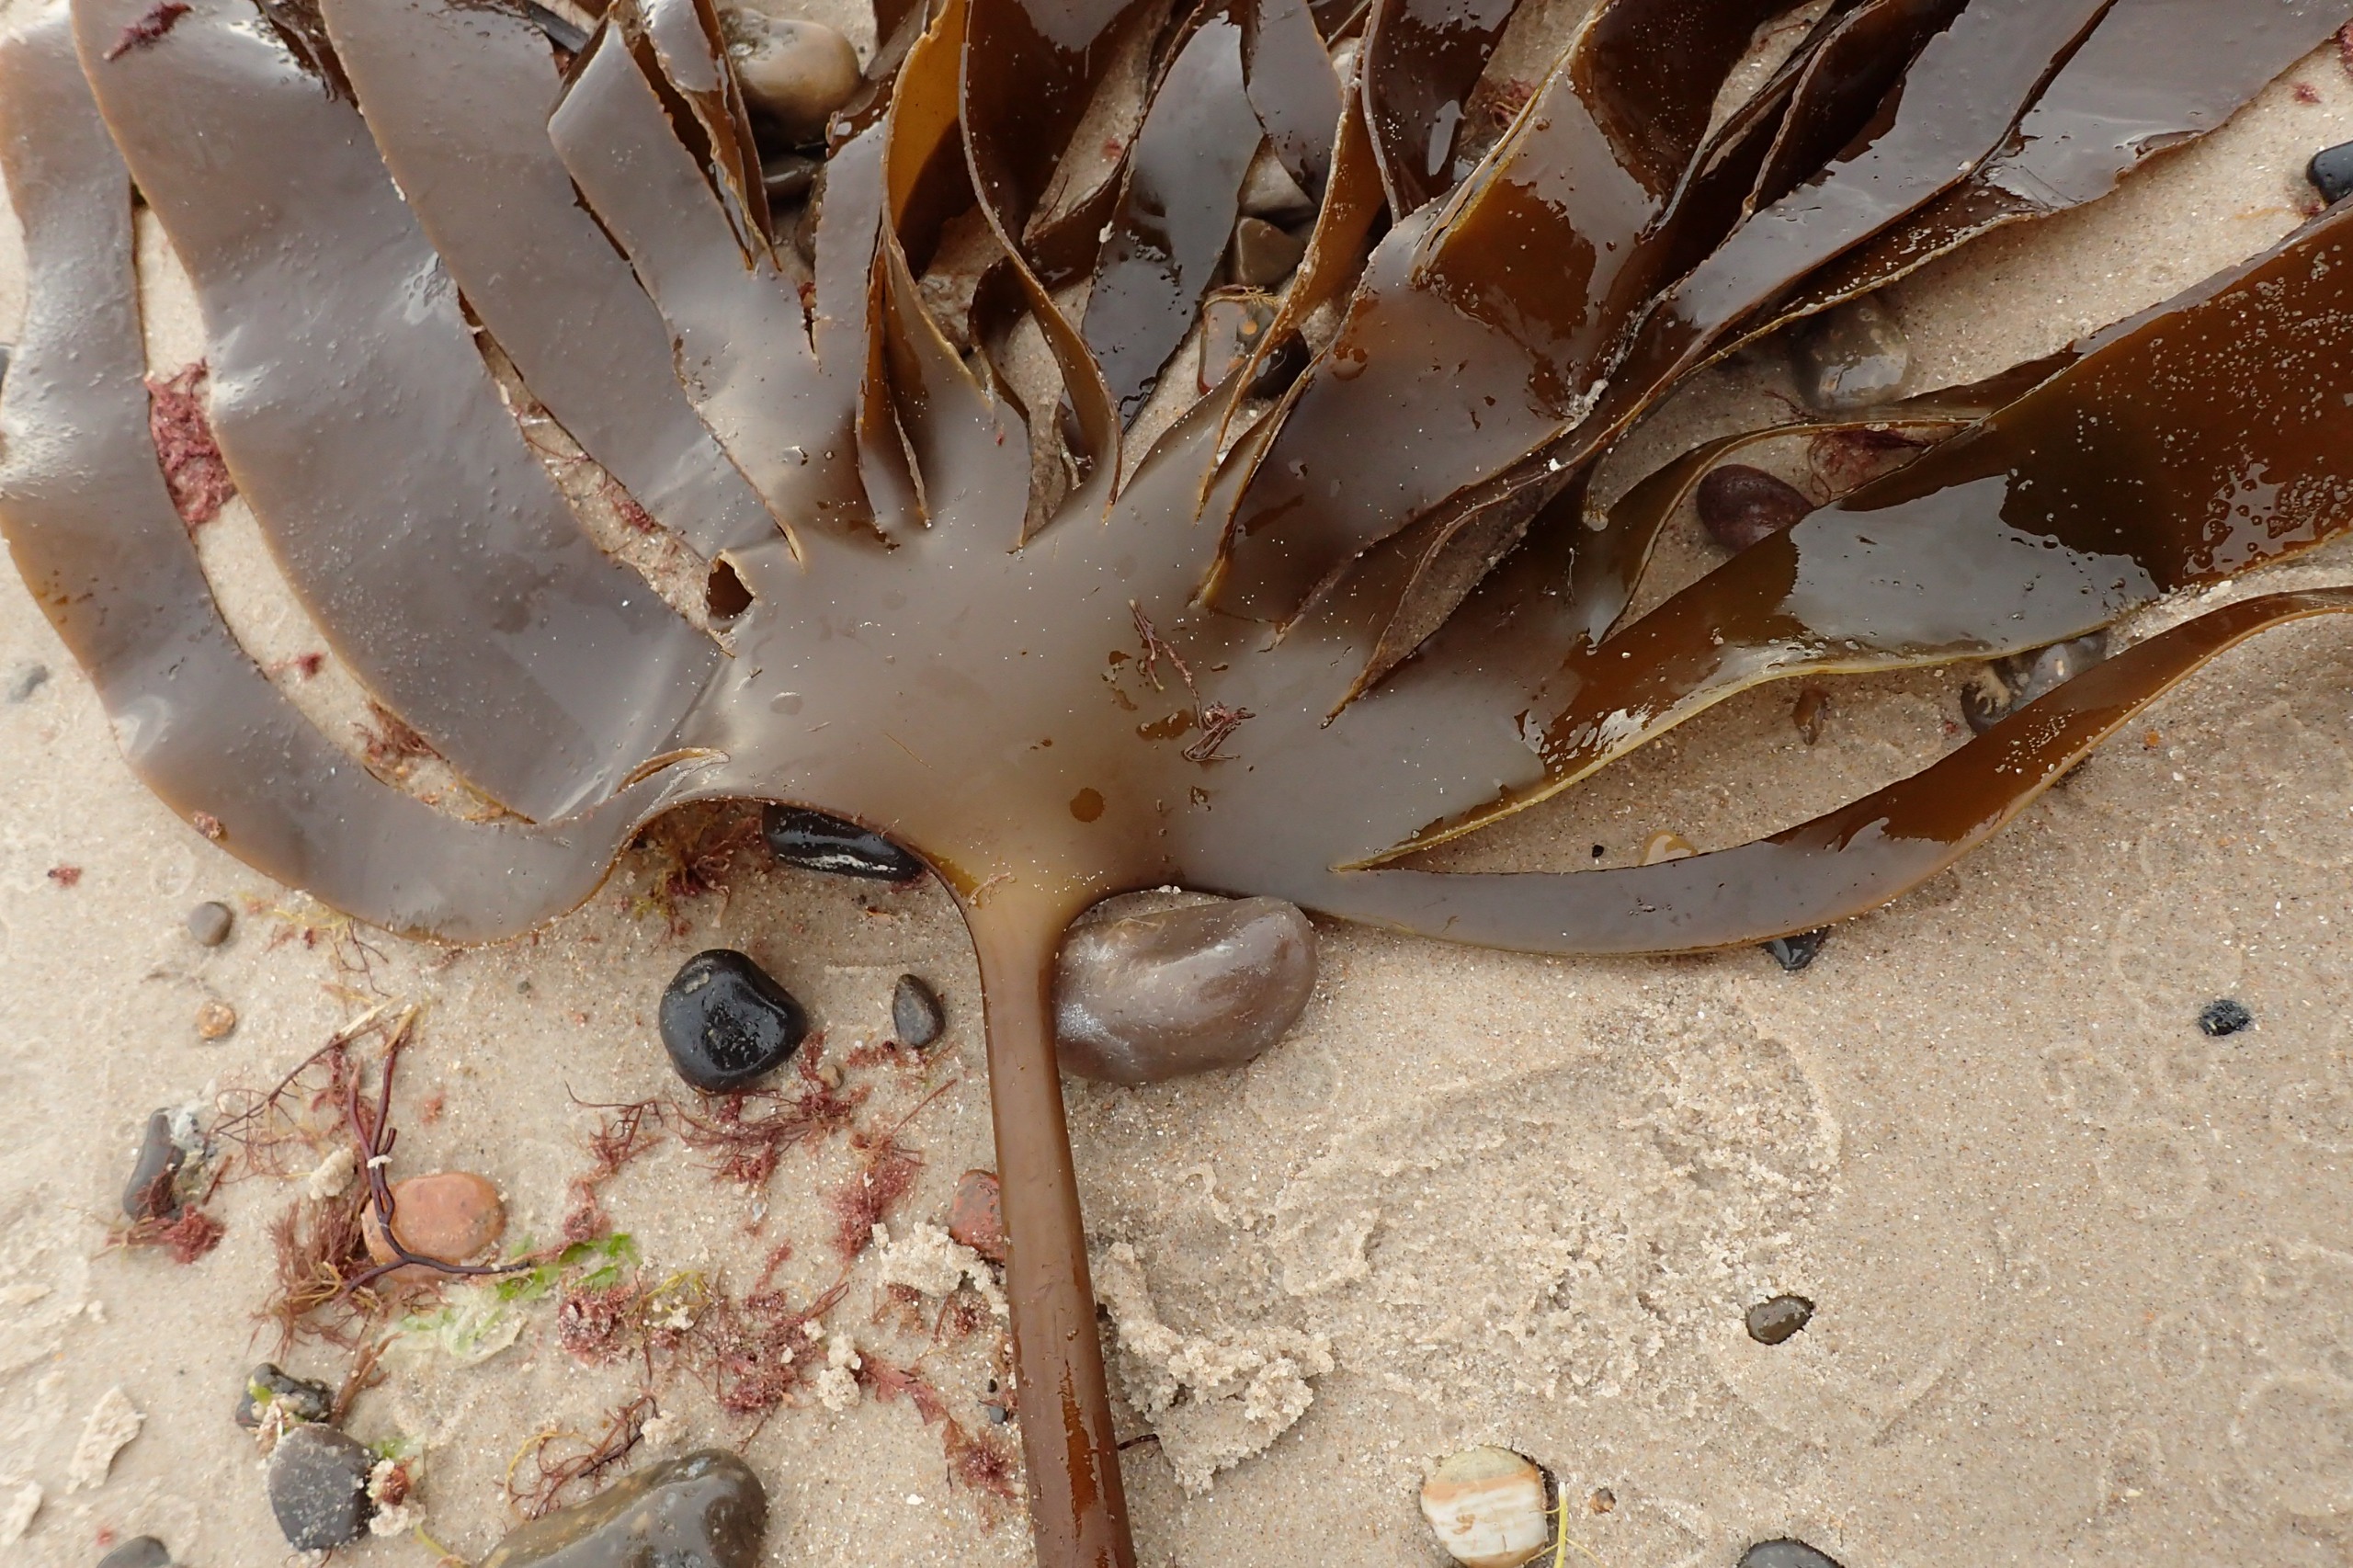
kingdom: Chromista
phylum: Ochrophyta
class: Phaeophyceae
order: Laminariales
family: Laminariaceae
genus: Laminaria
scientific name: Laminaria hyperborea
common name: Palmetang
